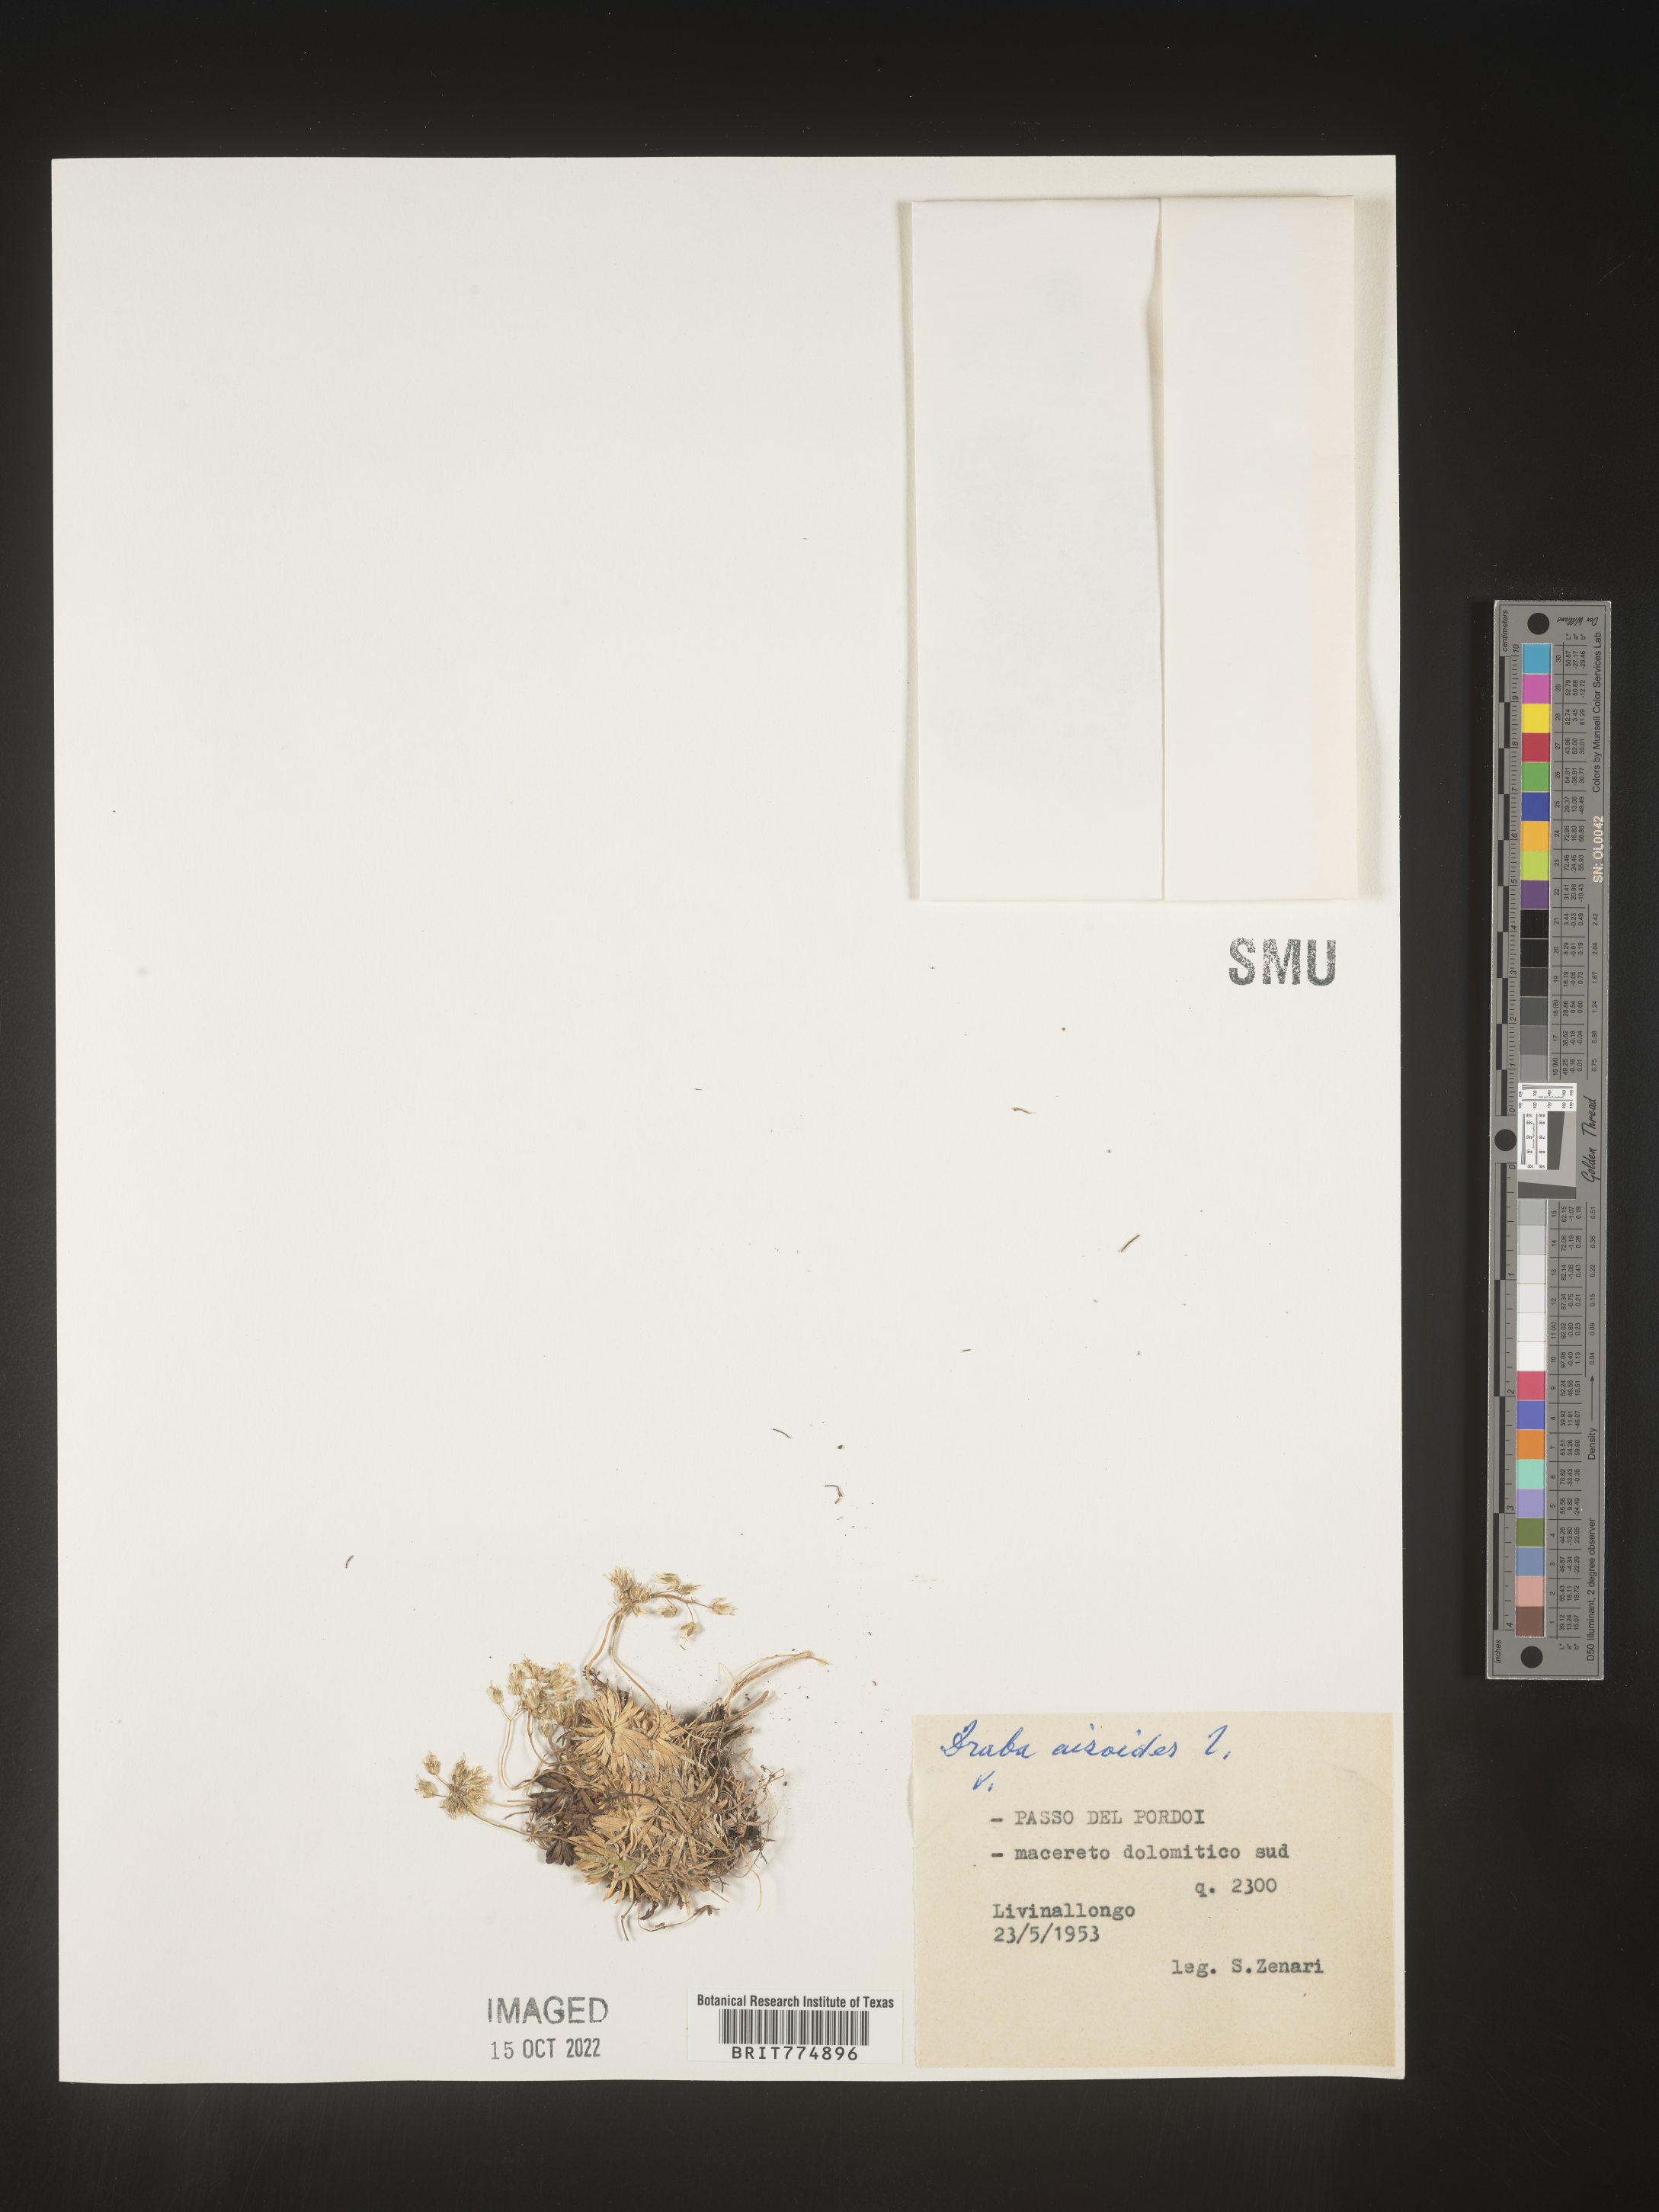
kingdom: Plantae
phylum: Tracheophyta
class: Magnoliopsida
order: Brassicales
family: Brassicaceae
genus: Draba
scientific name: Draba
